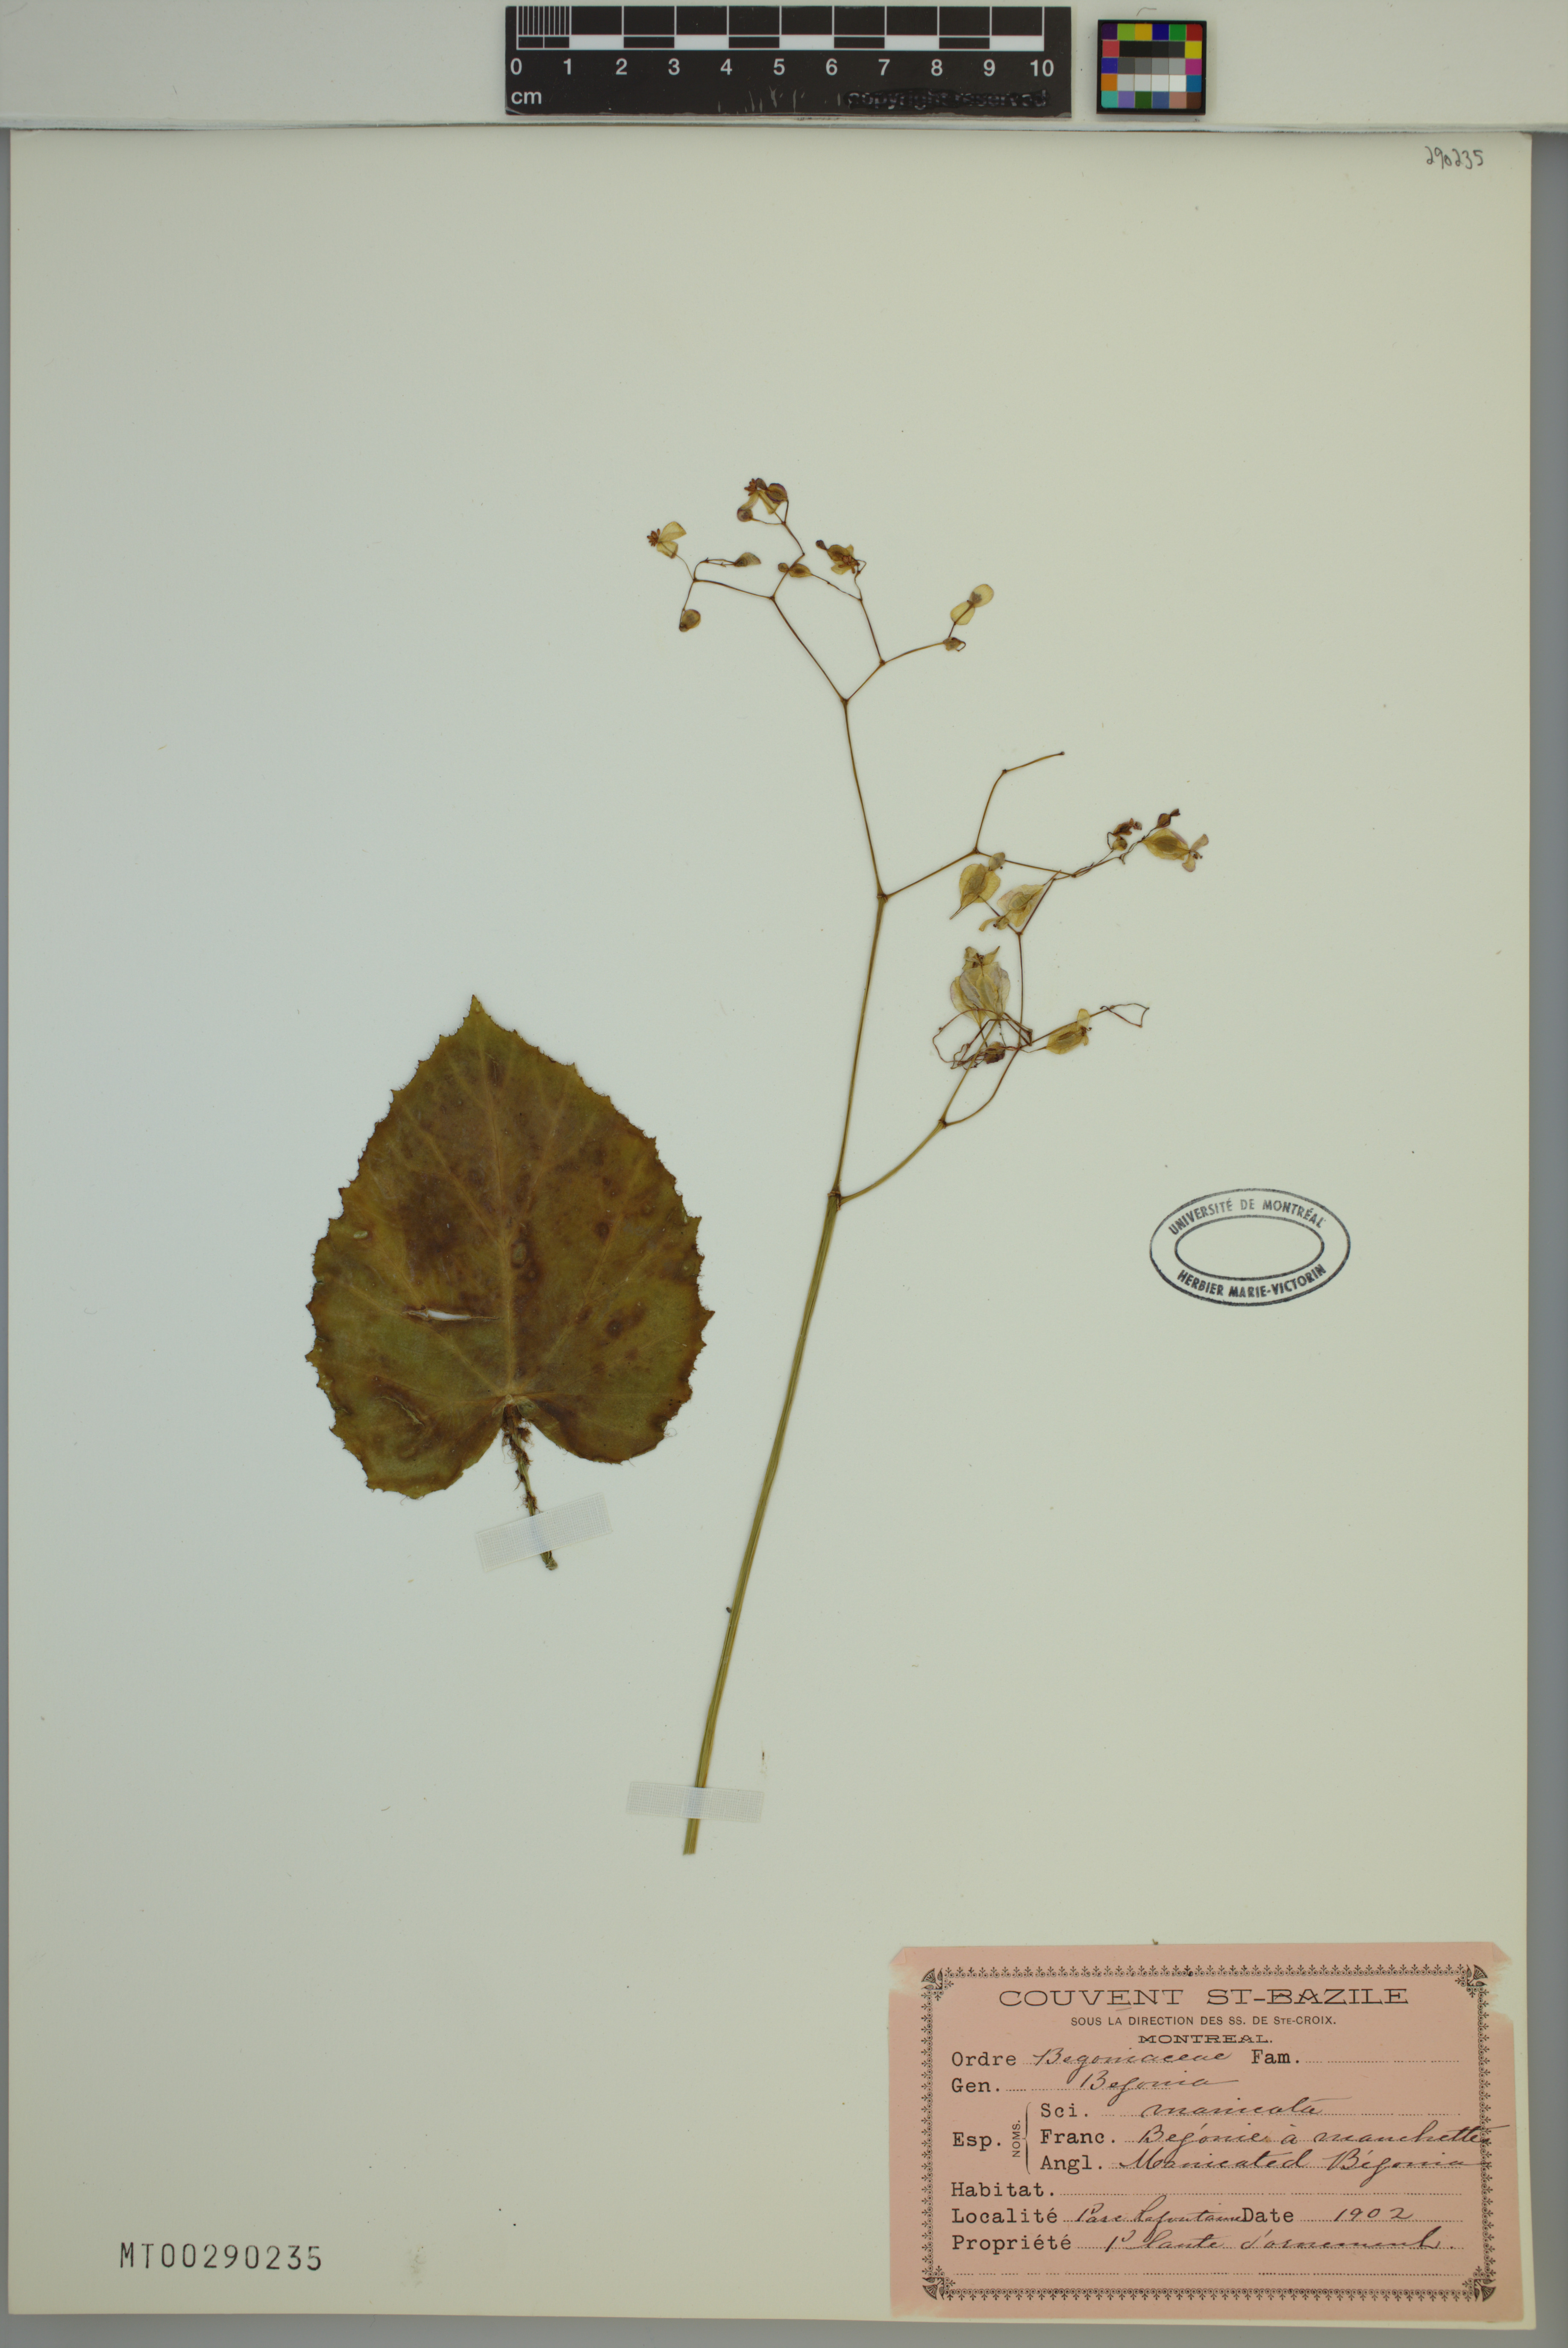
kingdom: Plantae
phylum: Tracheophyta
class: Magnoliopsida
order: Cucurbitales
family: Begoniaceae
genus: Begonia
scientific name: Begonia manicata
